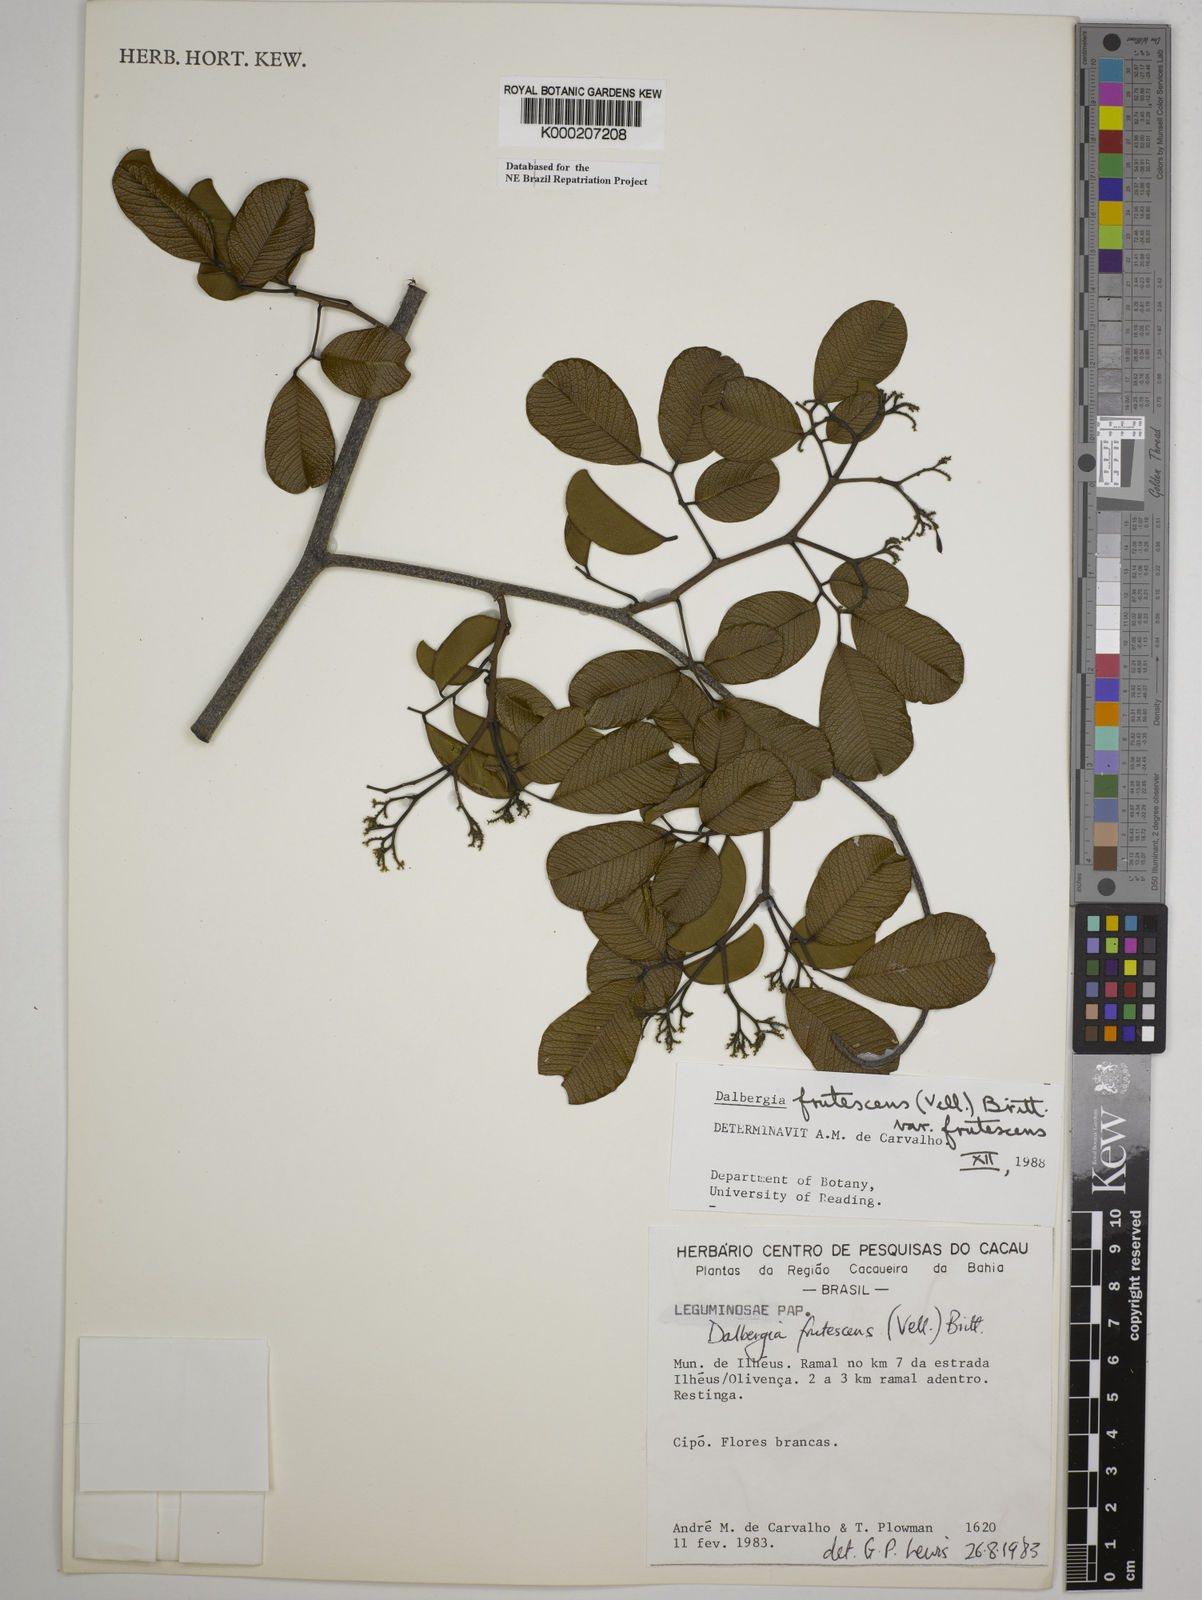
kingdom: Plantae
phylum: Tracheophyta
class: Magnoliopsida
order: Fabales
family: Fabaceae
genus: Dalbergia
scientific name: Dalbergia frutescens
